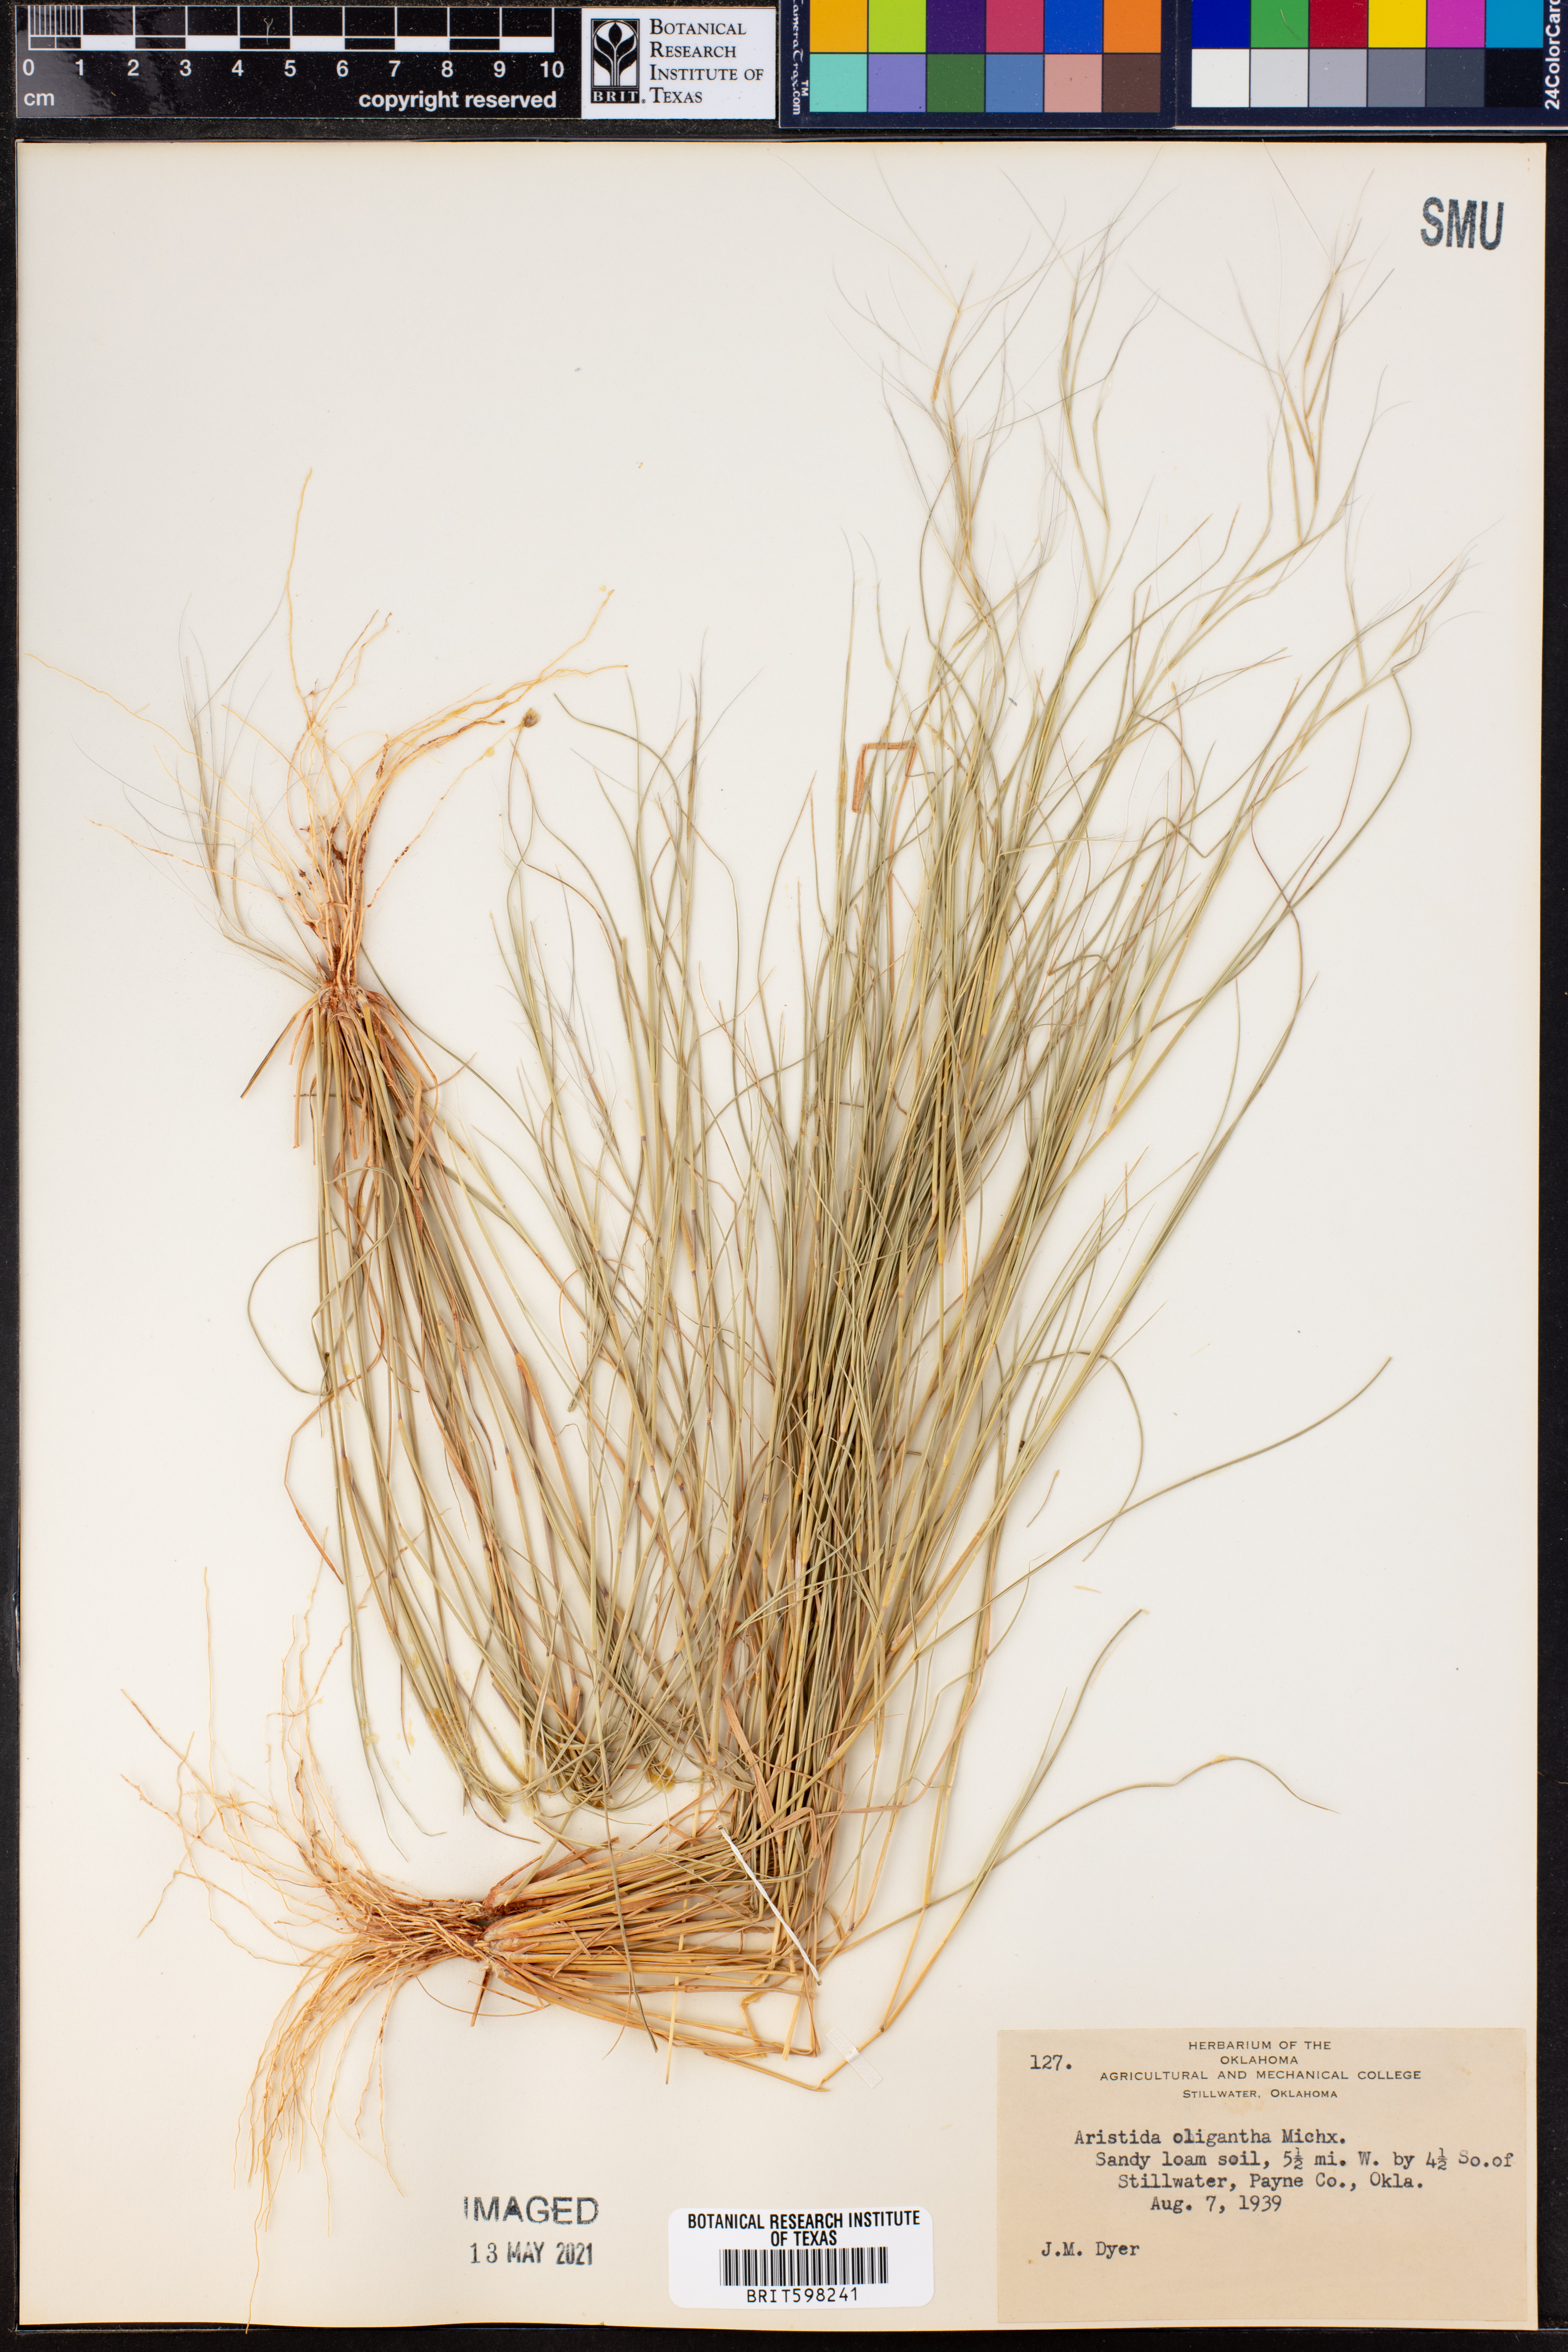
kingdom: Plantae
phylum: Tracheophyta
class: Liliopsida
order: Poales
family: Poaceae
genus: Aristida
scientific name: Aristida oligantha
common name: Few-flowered aristida
